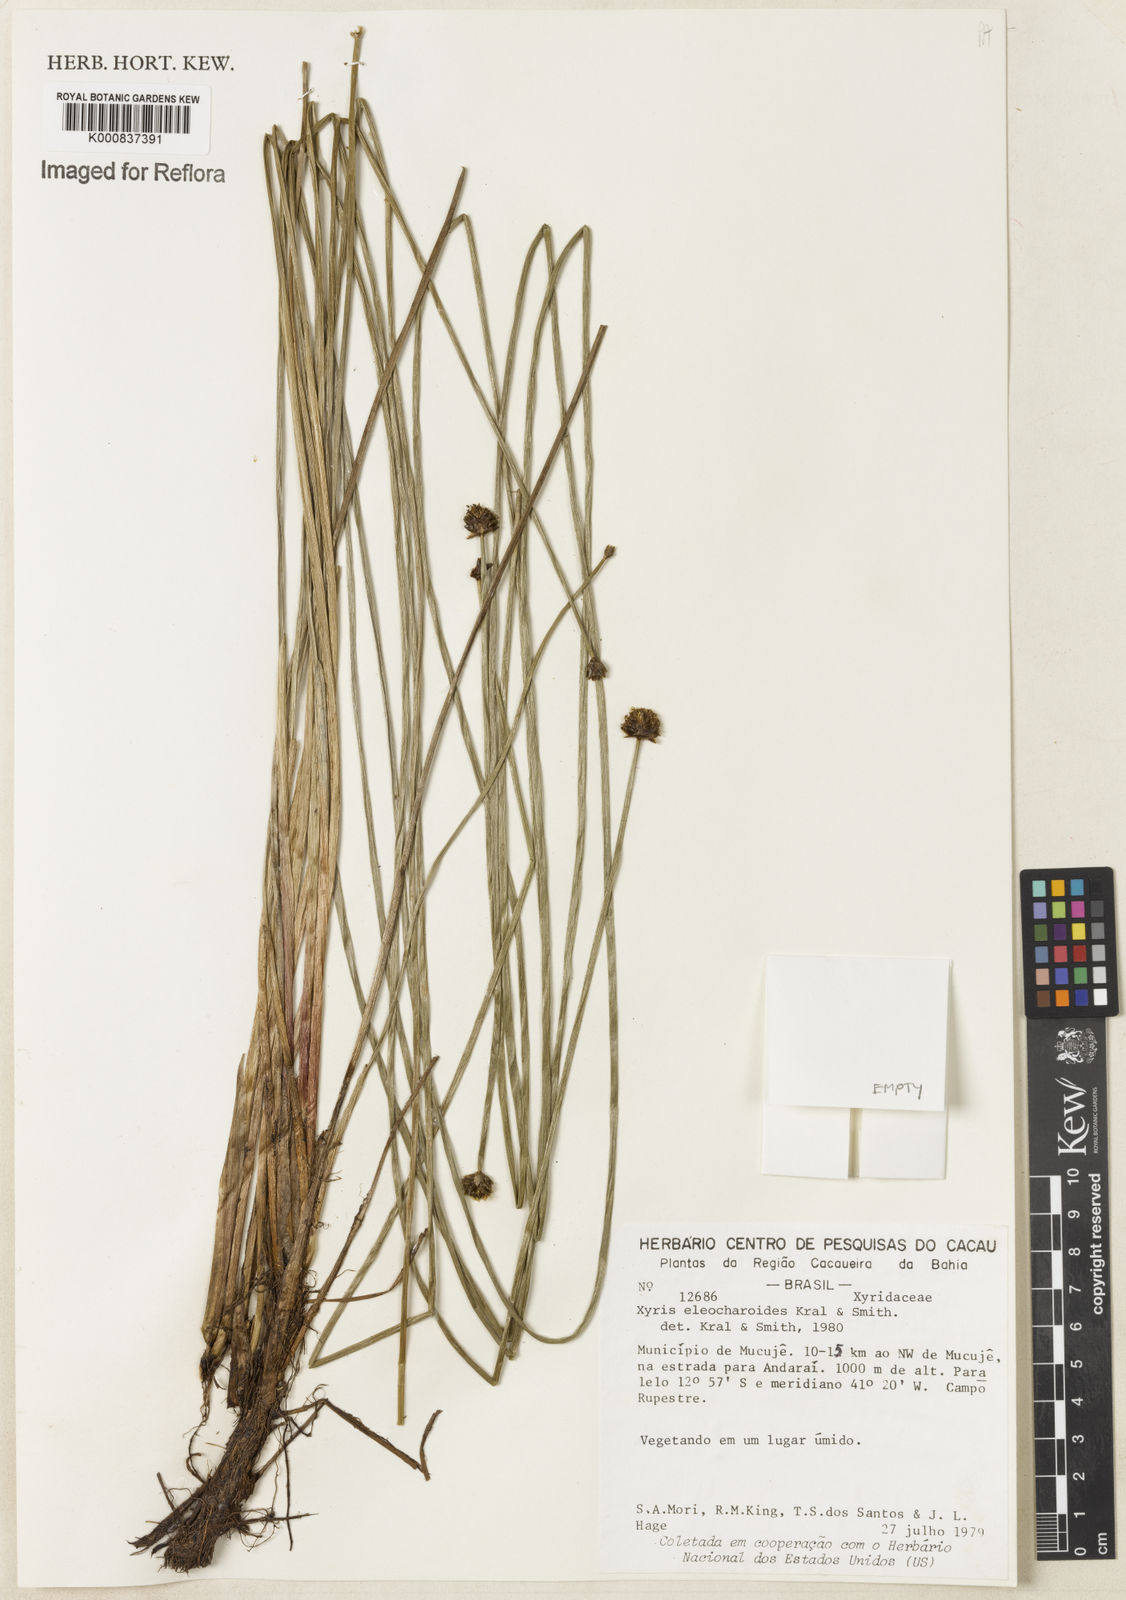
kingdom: Plantae
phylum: Tracheophyta
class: Liliopsida
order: Poales
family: Xyridaceae
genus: Xyris
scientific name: Xyris eleocharoides
